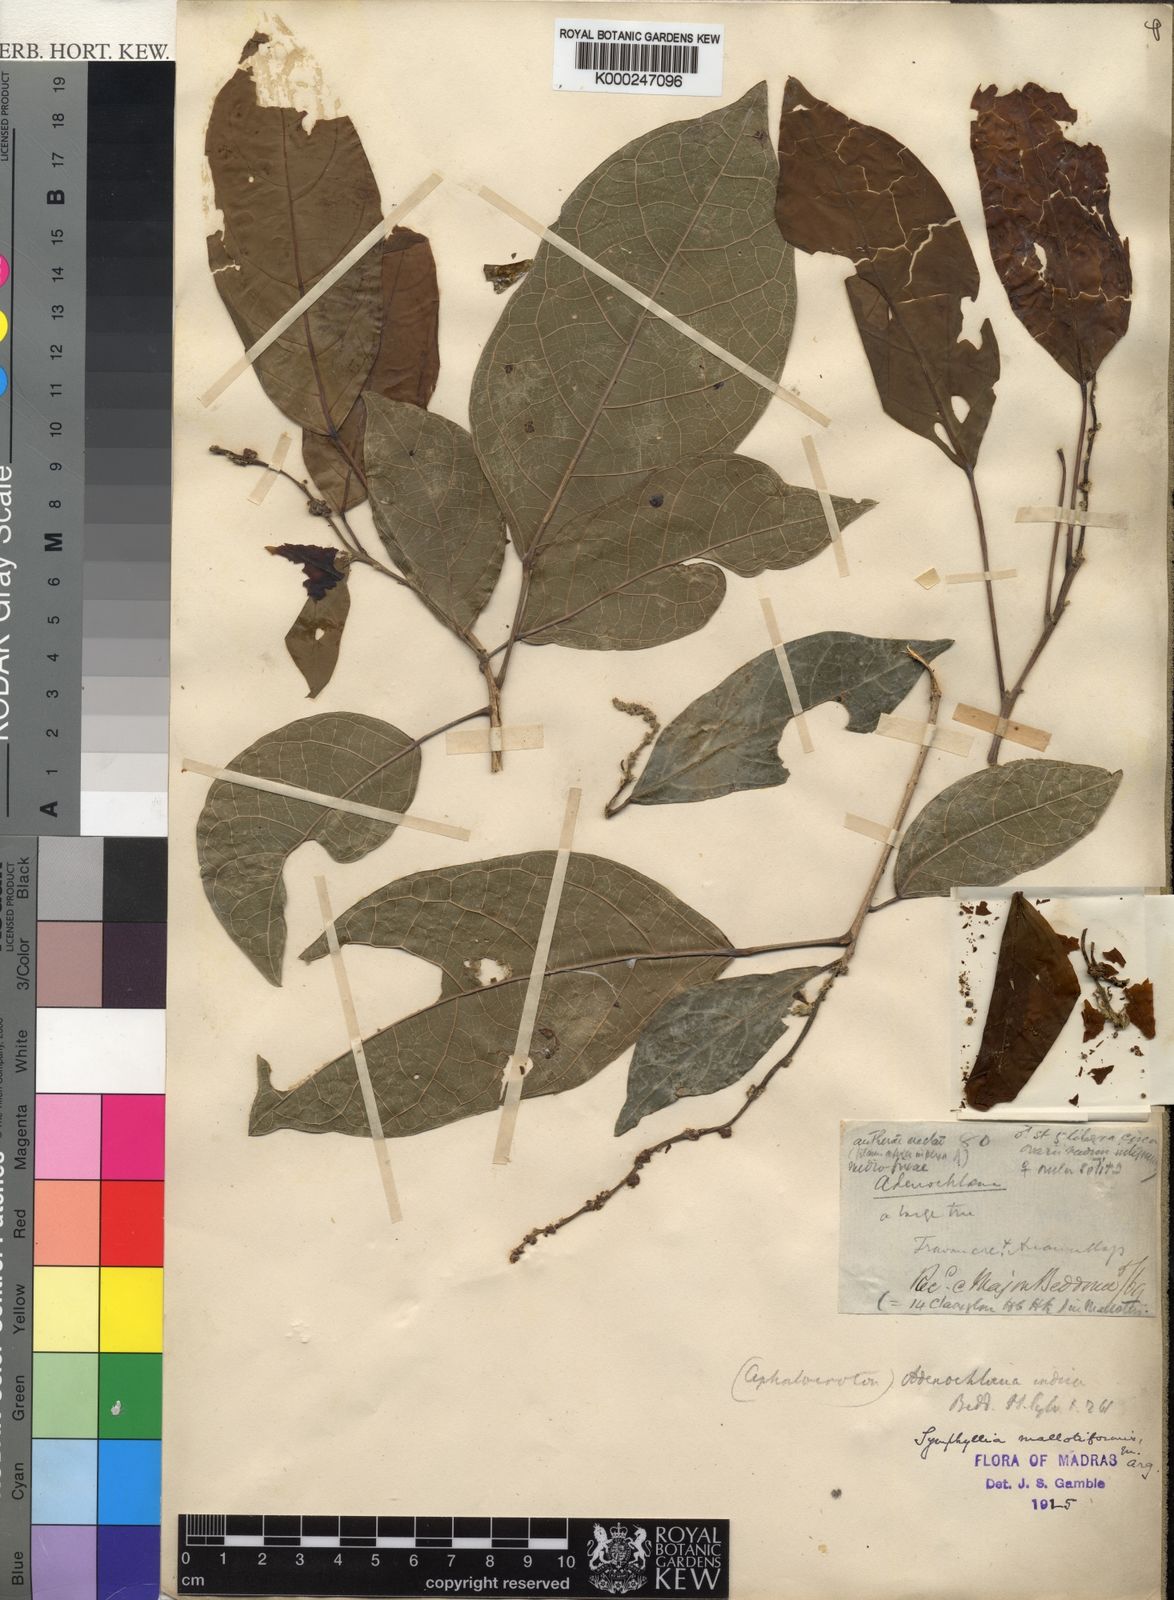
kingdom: Plantae
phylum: Tracheophyta
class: Magnoliopsida
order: Malpighiales
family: Euphorbiaceae
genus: Epiprinus
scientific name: Epiprinus
